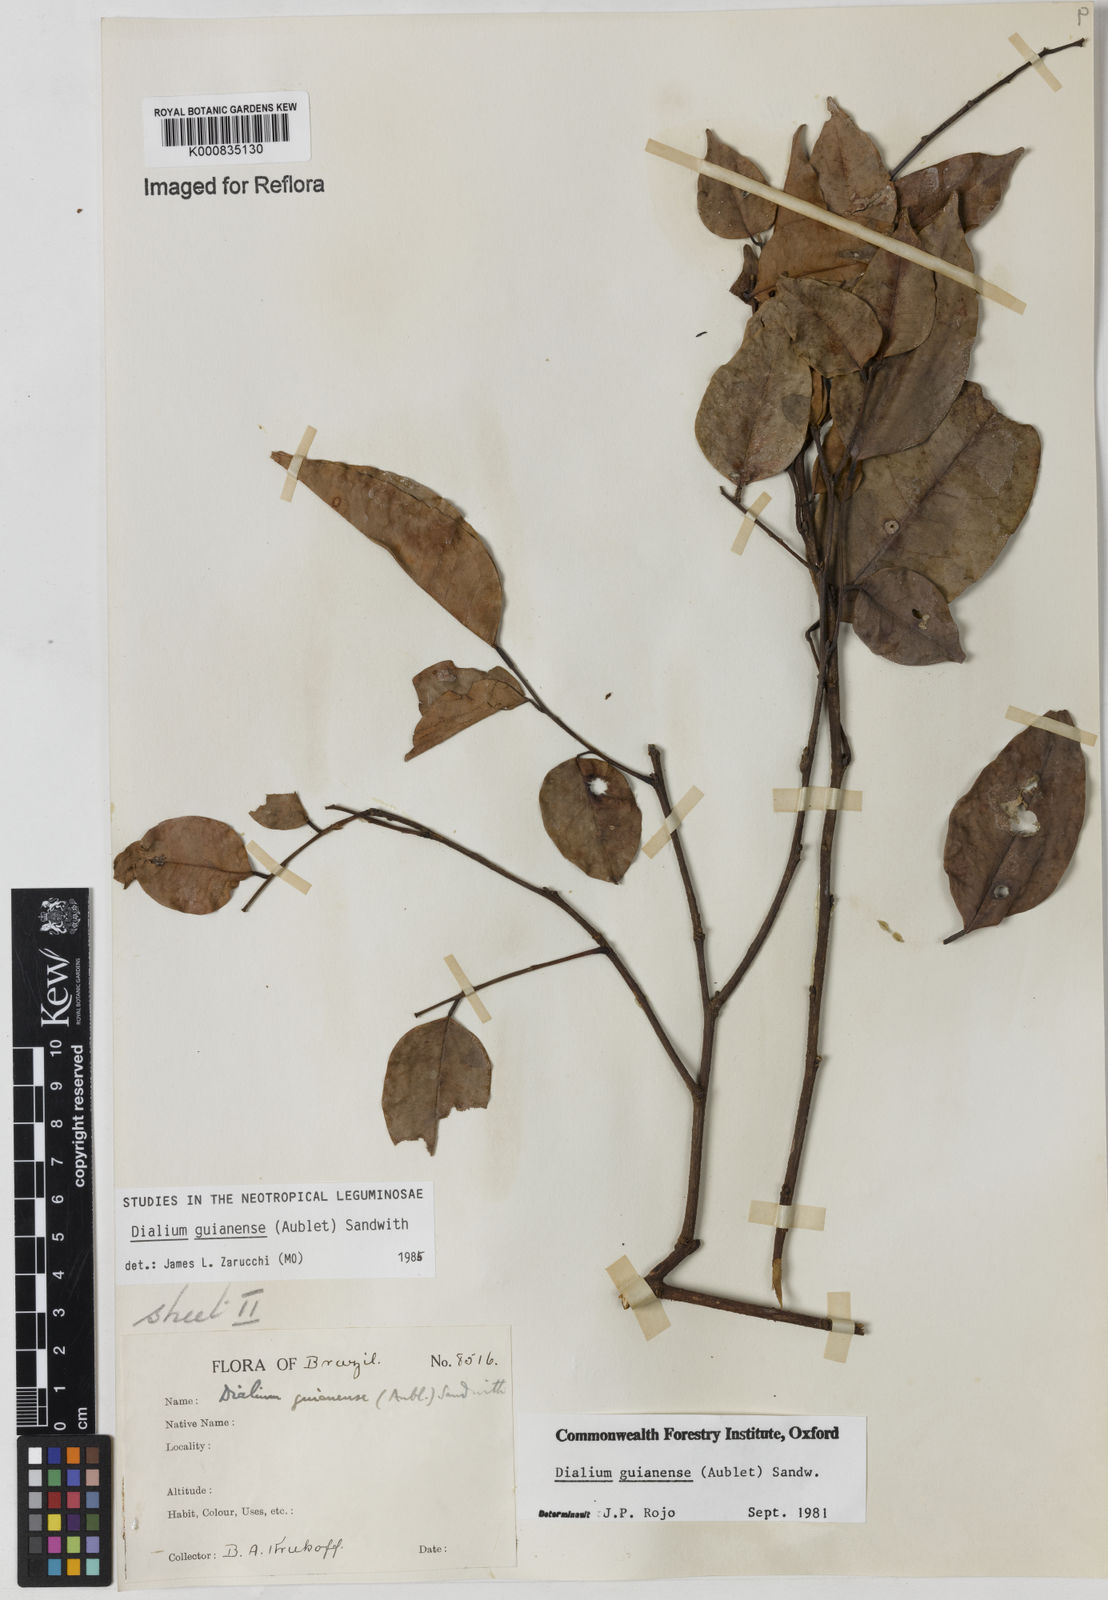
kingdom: Plantae
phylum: Tracheophyta
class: Magnoliopsida
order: Fabales
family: Fabaceae
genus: Dialium
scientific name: Dialium guianense
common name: Ironwood
